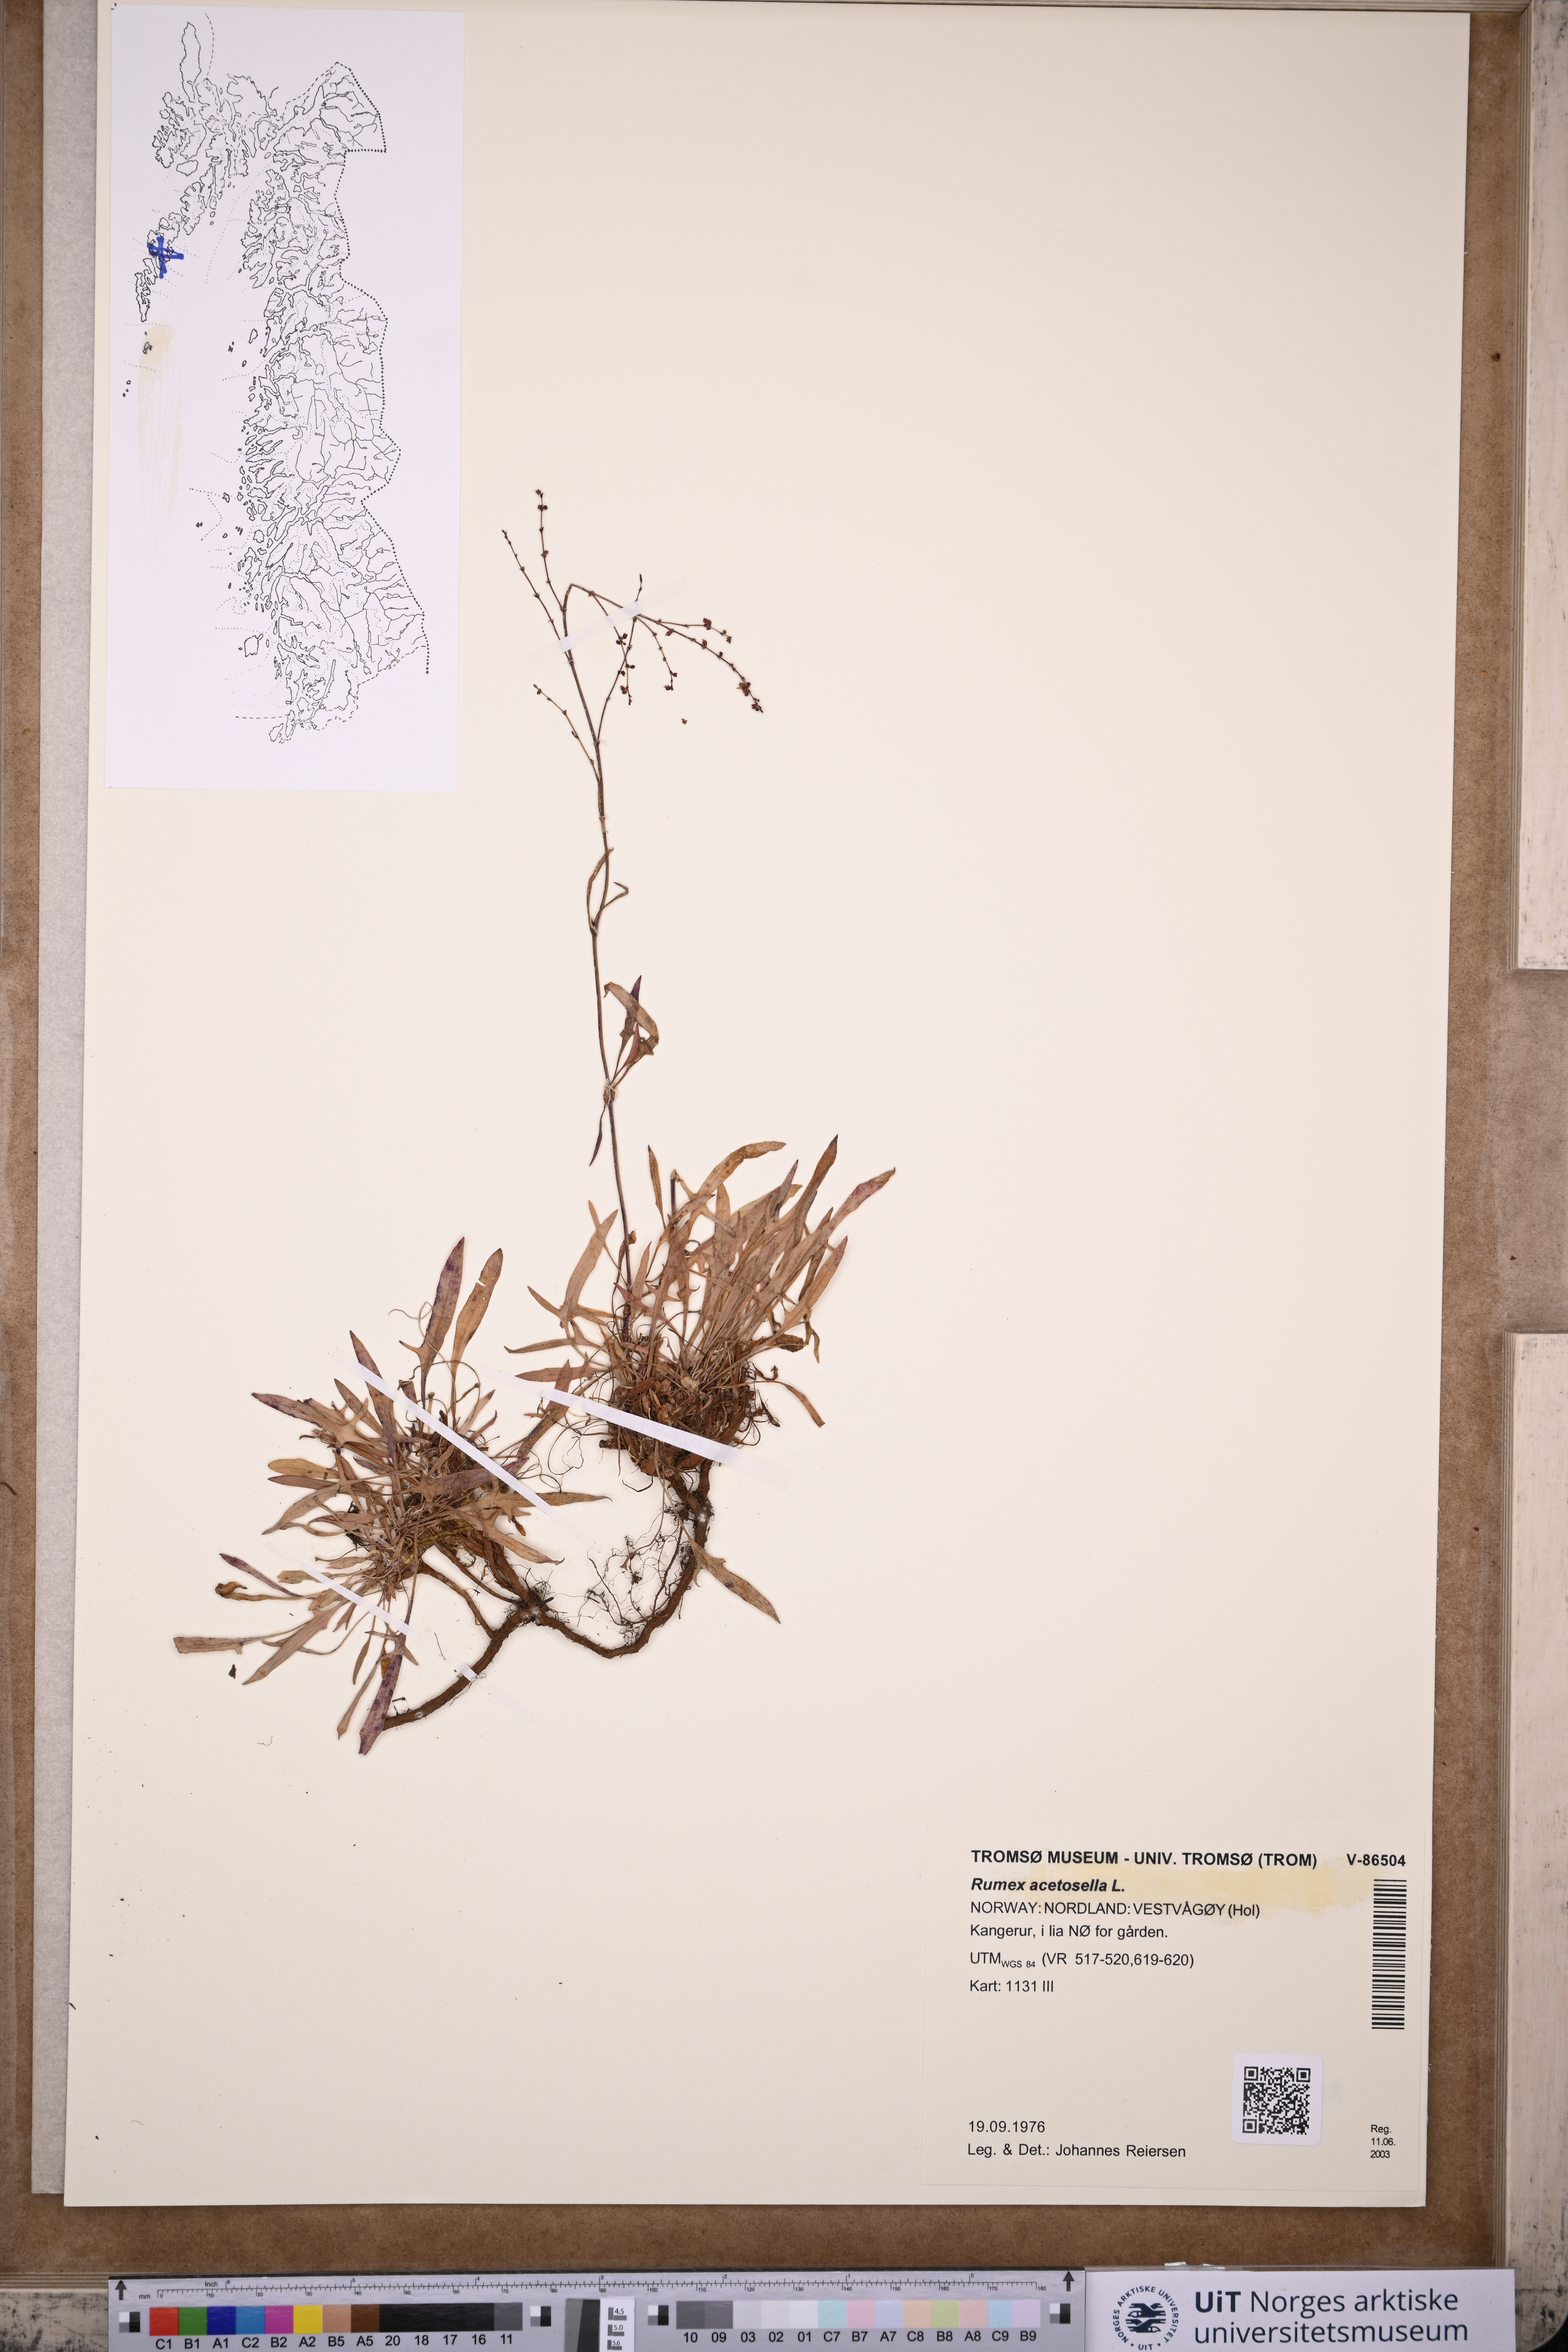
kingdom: Plantae
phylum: Tracheophyta
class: Magnoliopsida
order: Caryophyllales
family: Polygonaceae
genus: Rumex
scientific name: Rumex acetosella
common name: Common sheep sorrel
